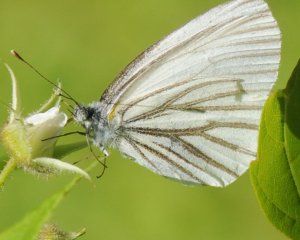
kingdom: Animalia
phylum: Arthropoda
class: Insecta
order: Lepidoptera
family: Pieridae
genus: Pieris
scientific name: Pieris oleracea
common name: Mustard White
